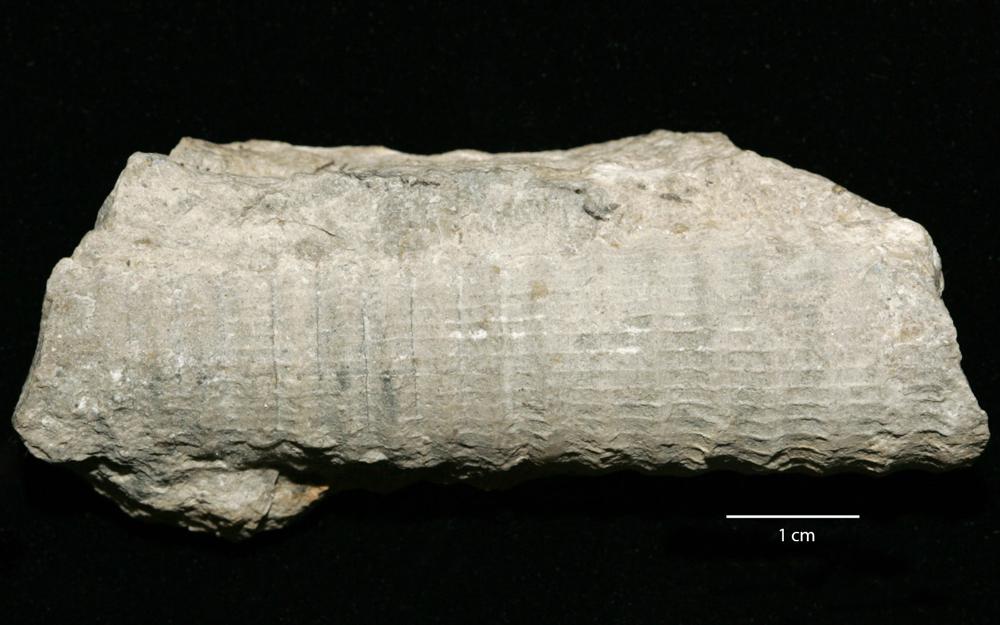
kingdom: Animalia
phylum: Mollusca
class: Cephalopoda
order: Orthocerida
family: Pseudorthoceratidae
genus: Spyroceras
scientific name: Spyroceras Orthoceras bilineatum
